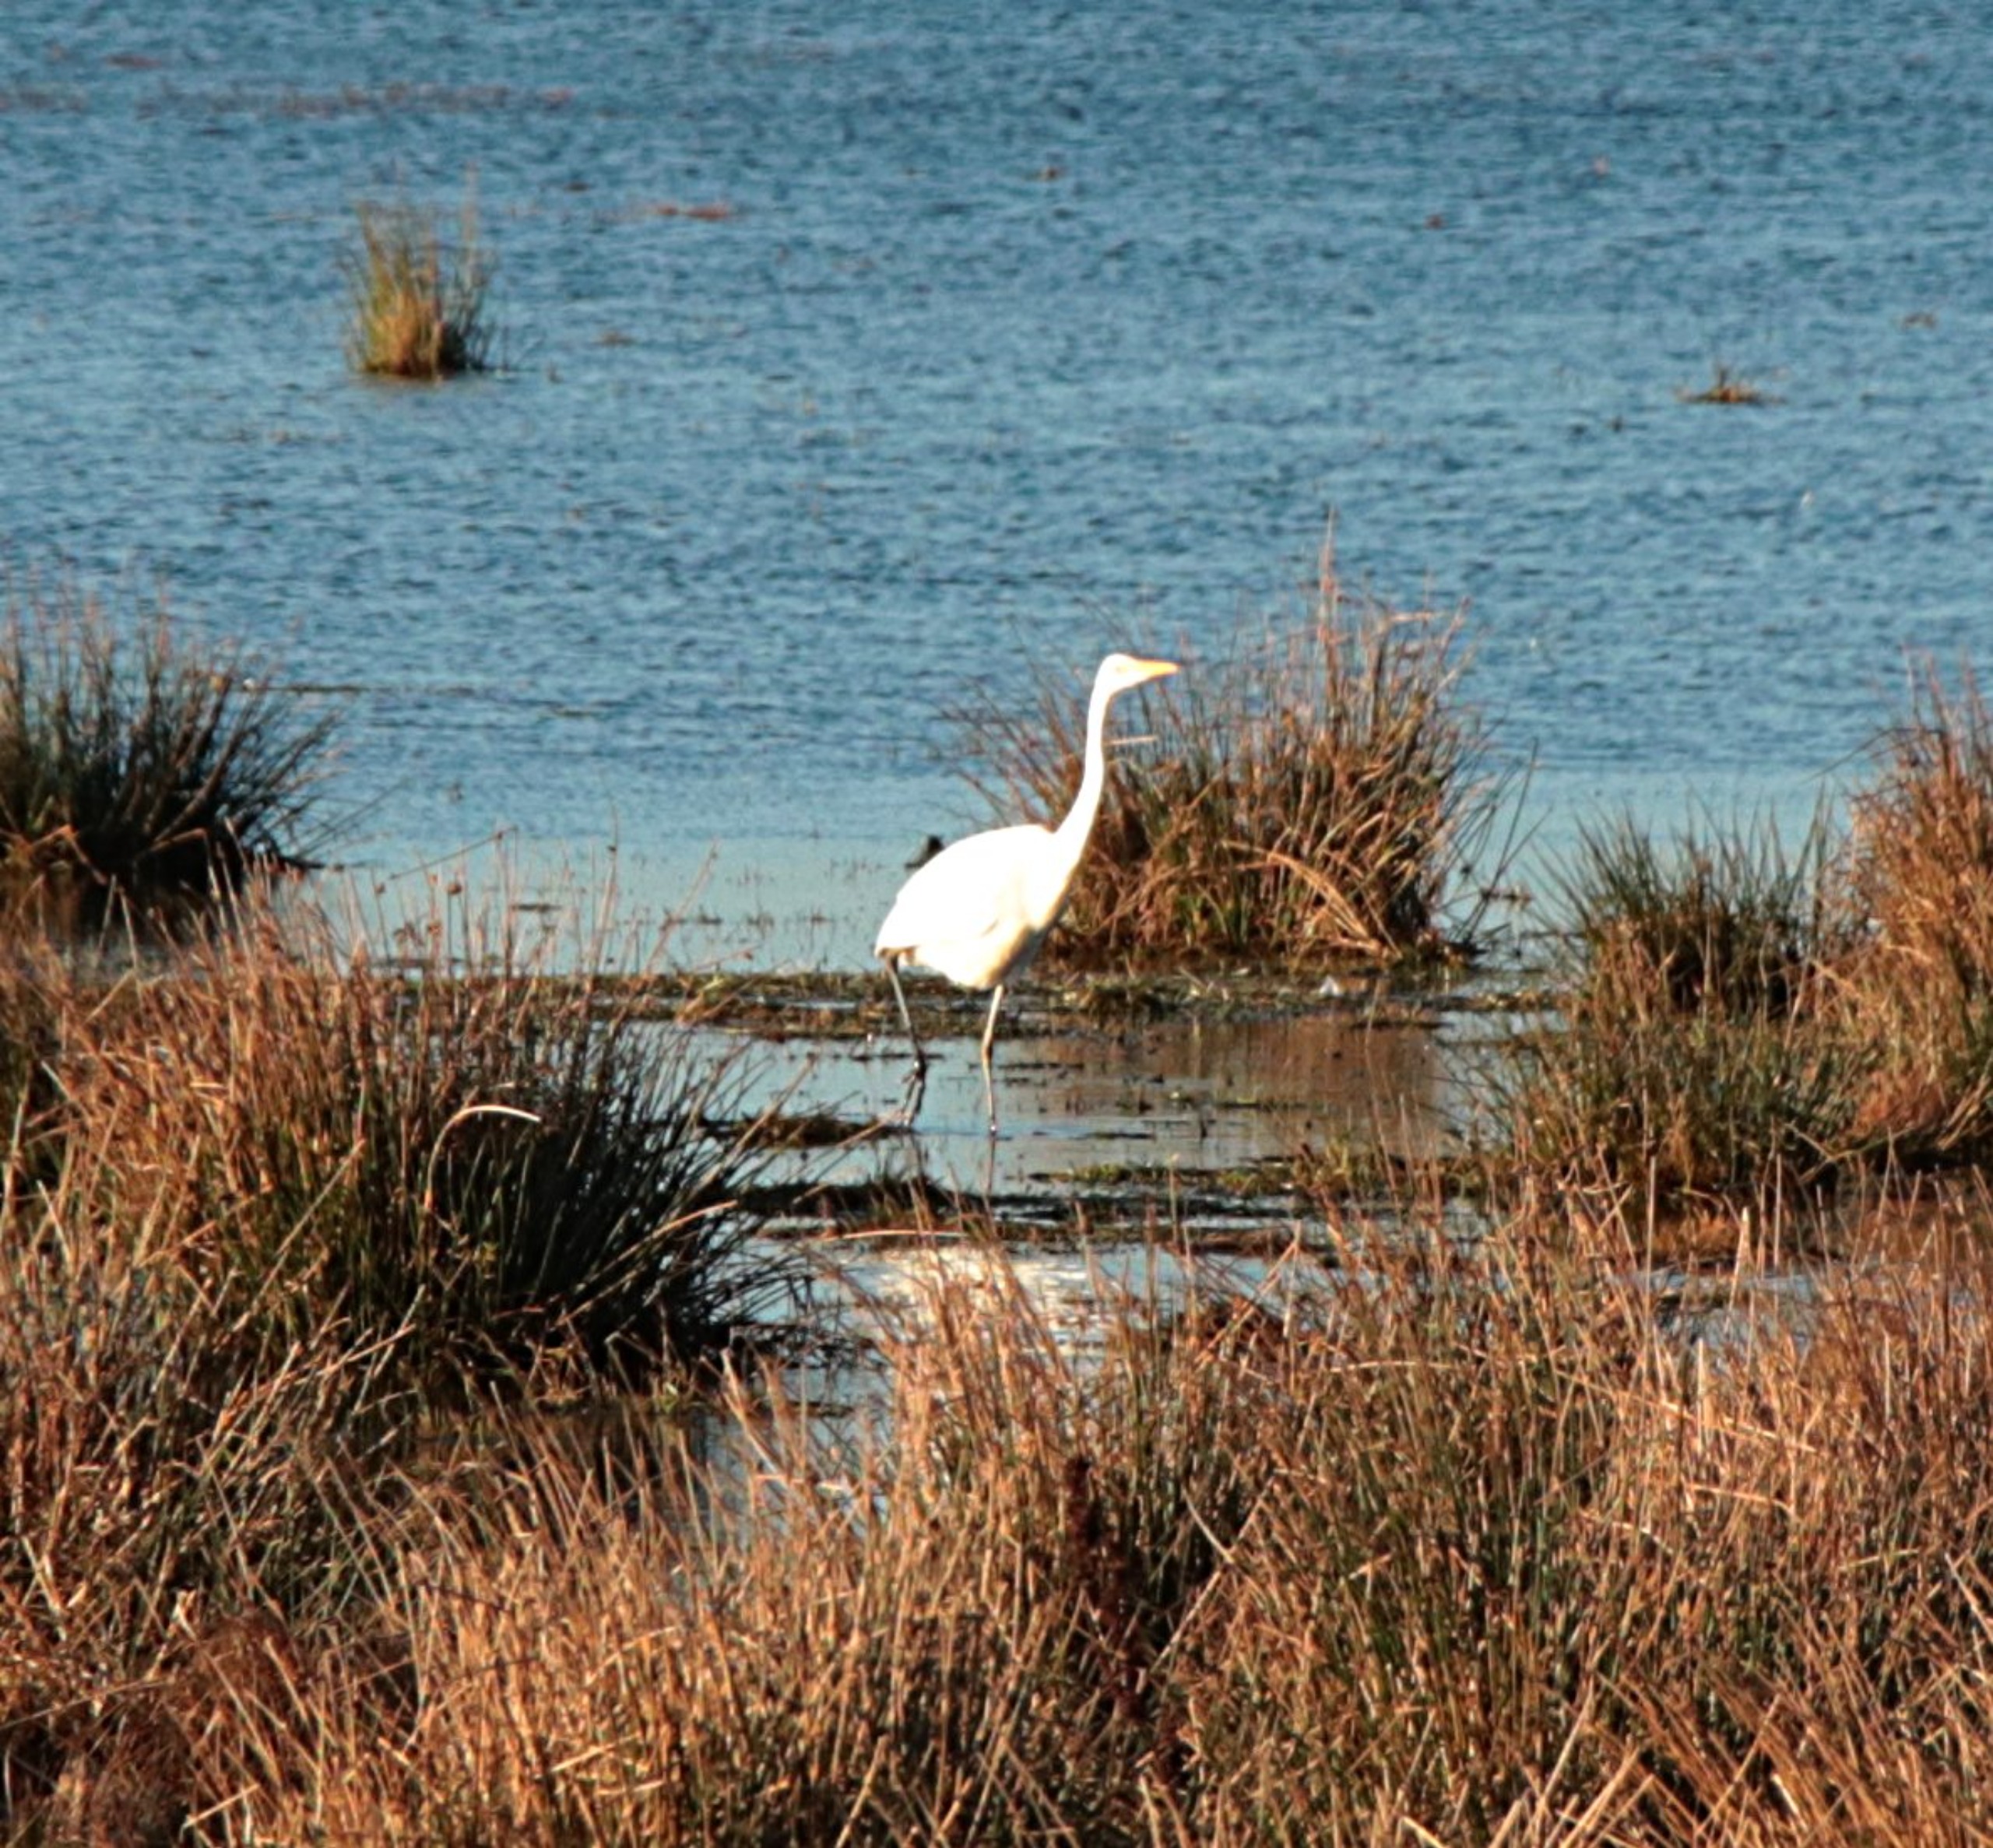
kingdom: Animalia
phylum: Chordata
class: Aves
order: Pelecaniformes
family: Ardeidae
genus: Ardea
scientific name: Ardea alba
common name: Sølvhejre
